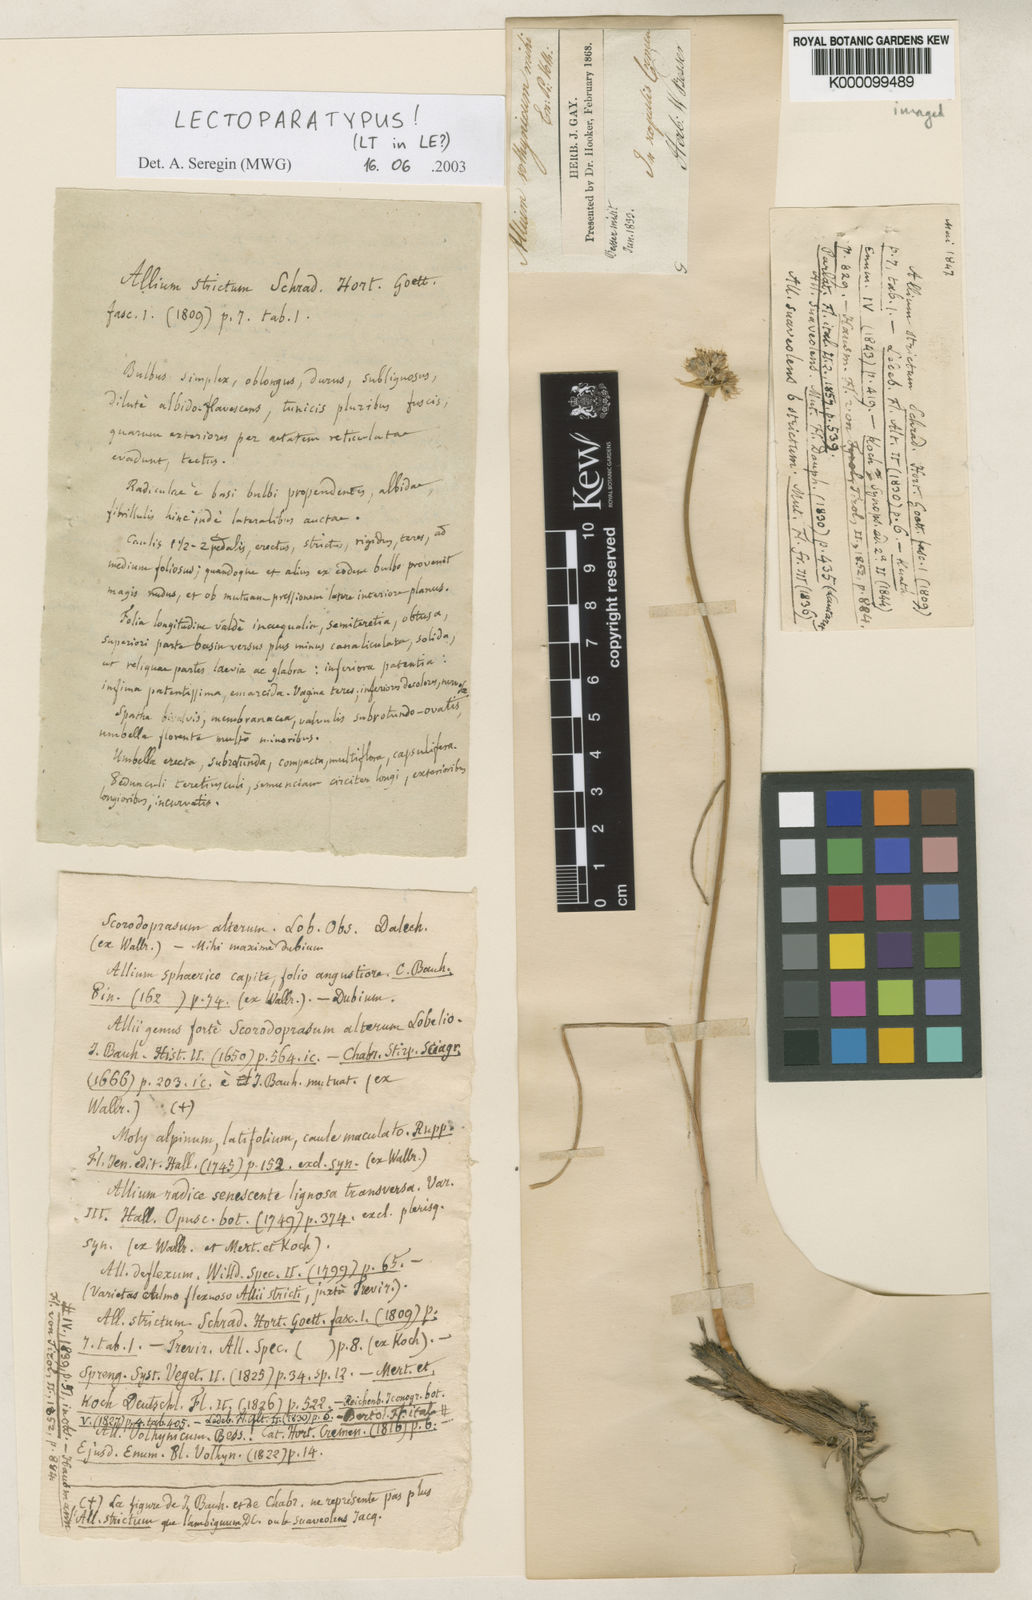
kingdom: Plantae
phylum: Tracheophyta
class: Liliopsida
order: Asparagales
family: Amaryllidaceae
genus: Allium
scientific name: Allium strictum
